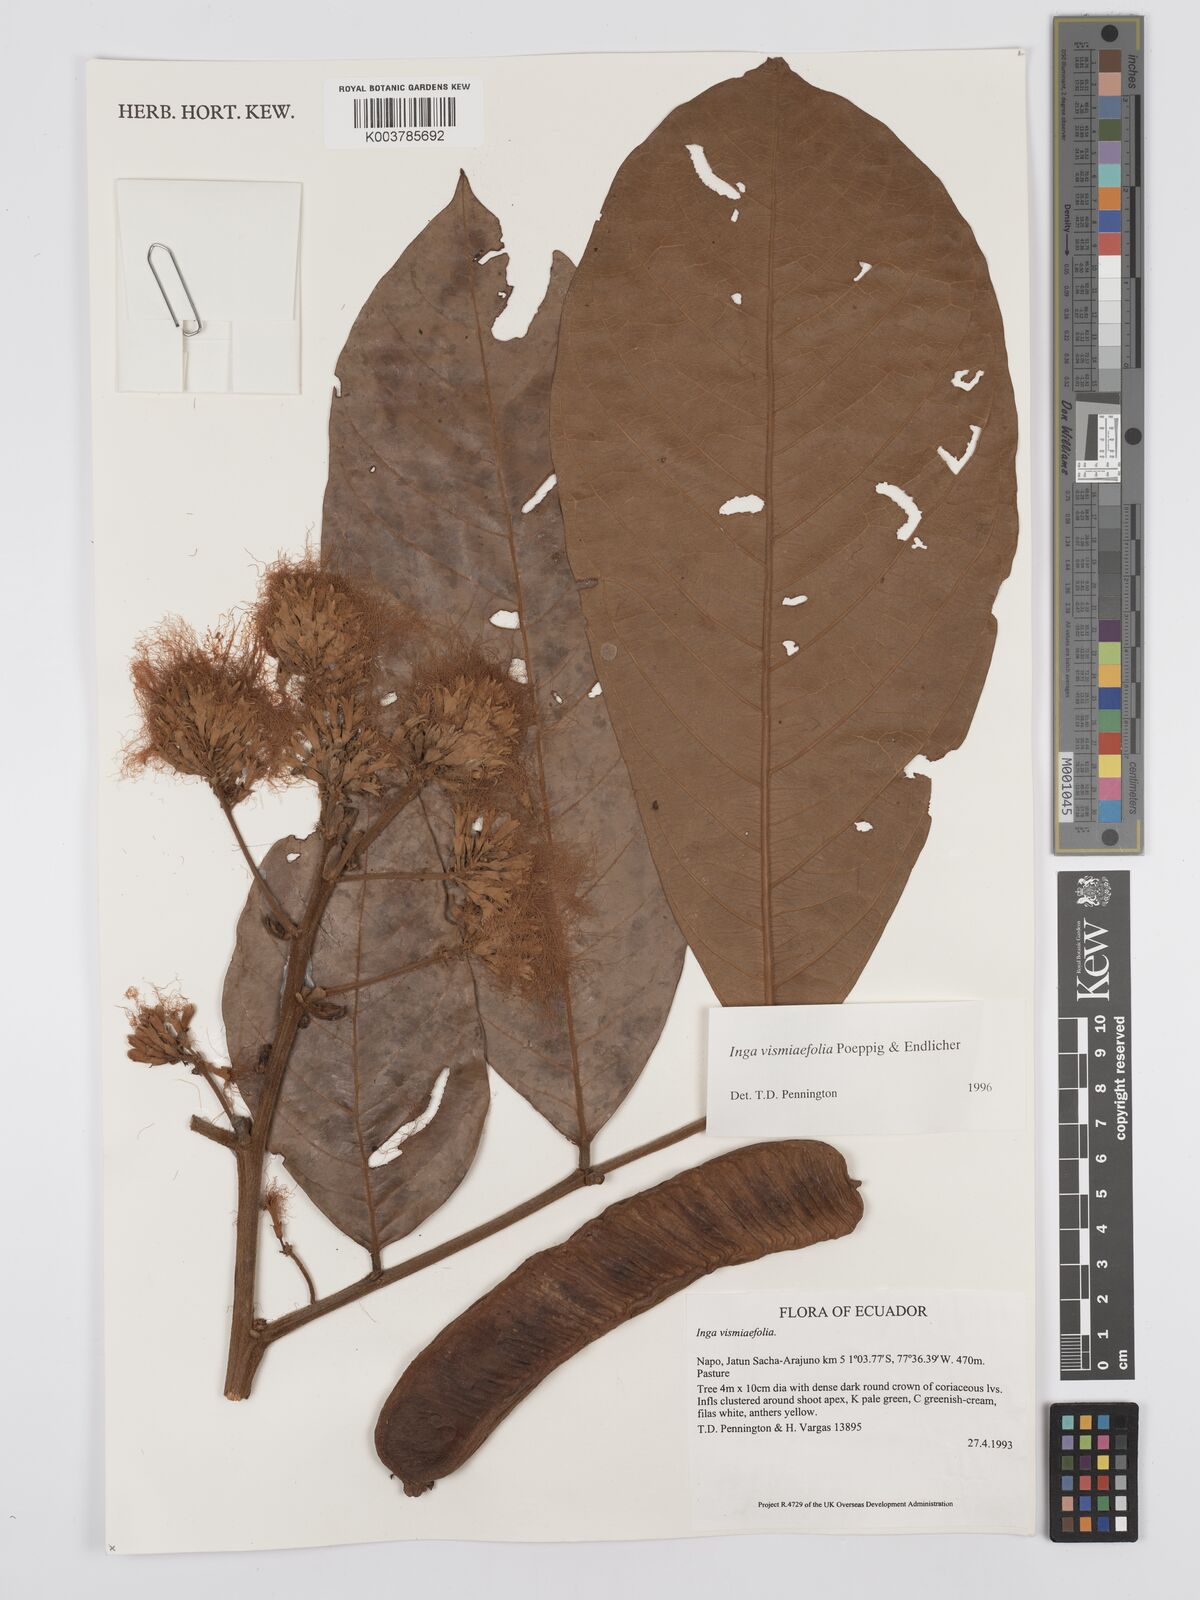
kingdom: Plantae
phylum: Tracheophyta
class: Magnoliopsida
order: Fabales
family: Fabaceae
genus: Inga
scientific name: Inga vismiifolia
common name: Howler monkey inga
